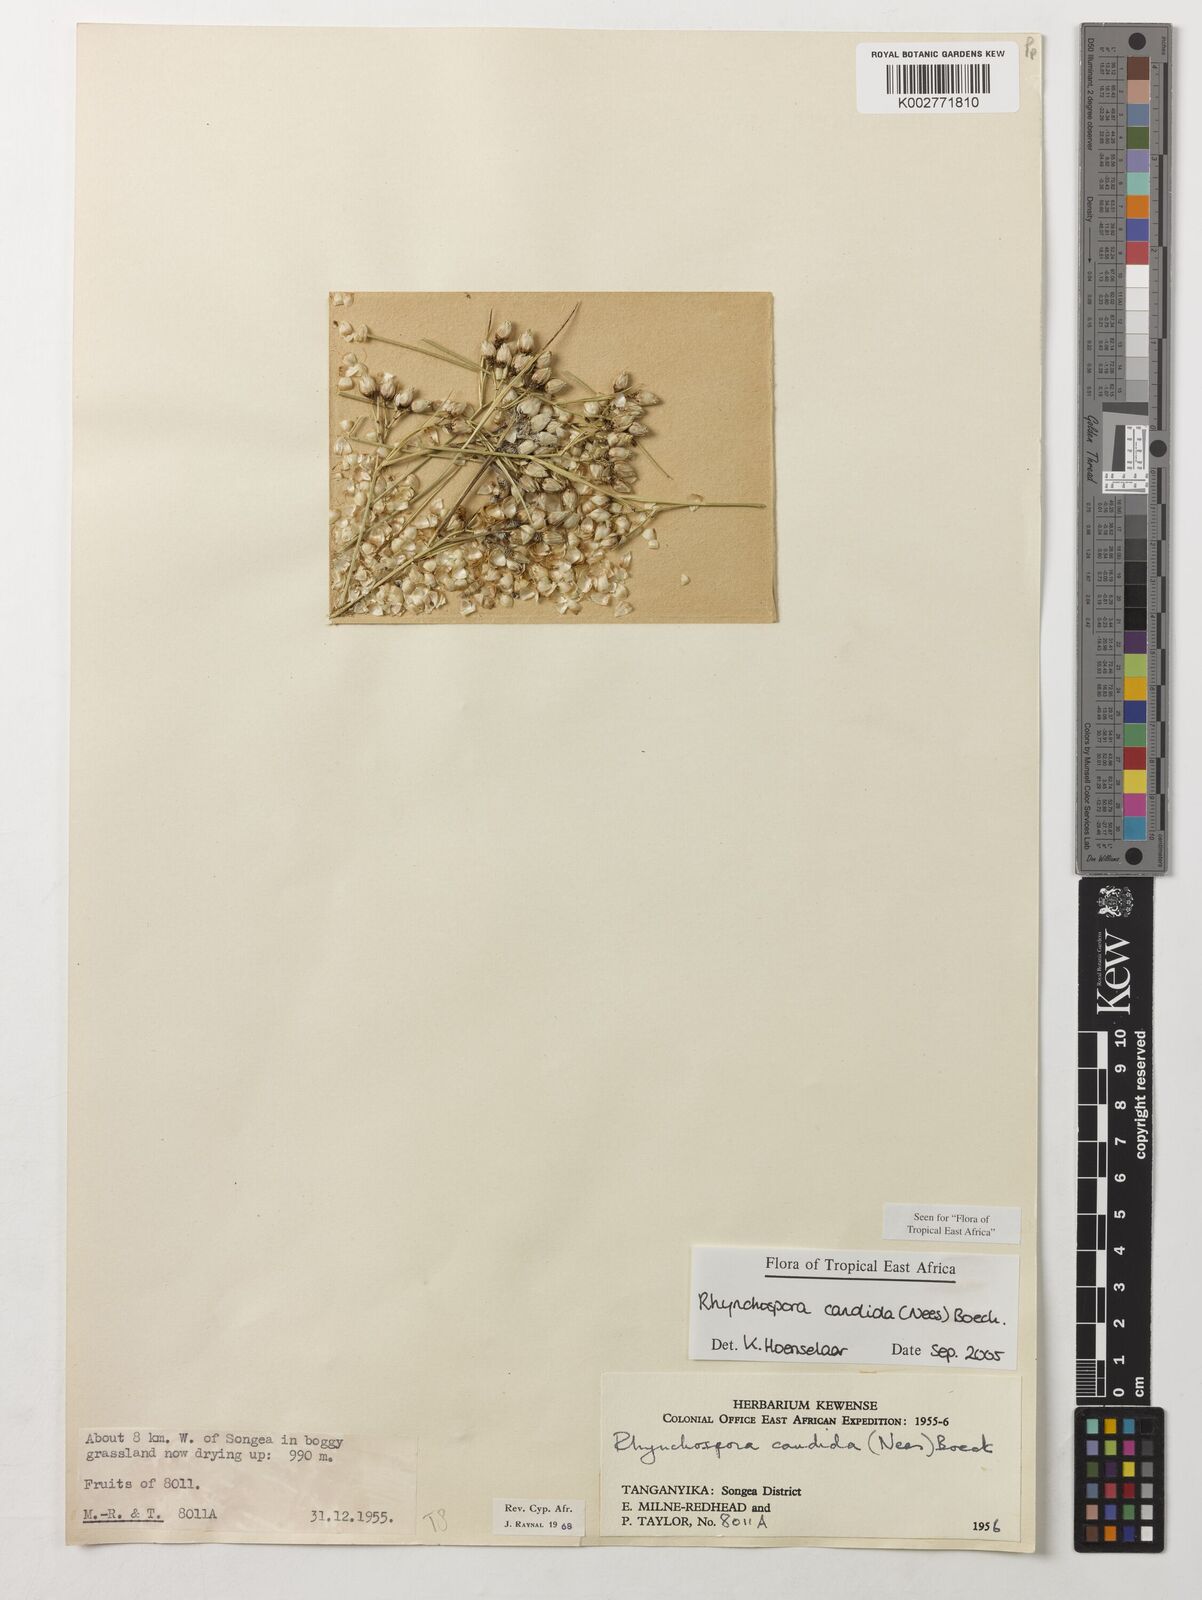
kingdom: Plantae
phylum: Tracheophyta
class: Liliopsida
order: Poales
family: Cyperaceae
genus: Rhynchospora
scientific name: Rhynchospora candida
